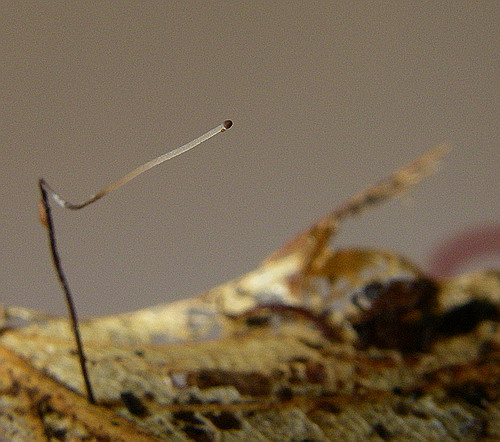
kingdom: Fungi
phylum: Basidiomycota
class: Agaricomycetes
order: Agaricales
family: Typhulaceae
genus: Typhula
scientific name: Typhula erythropus
